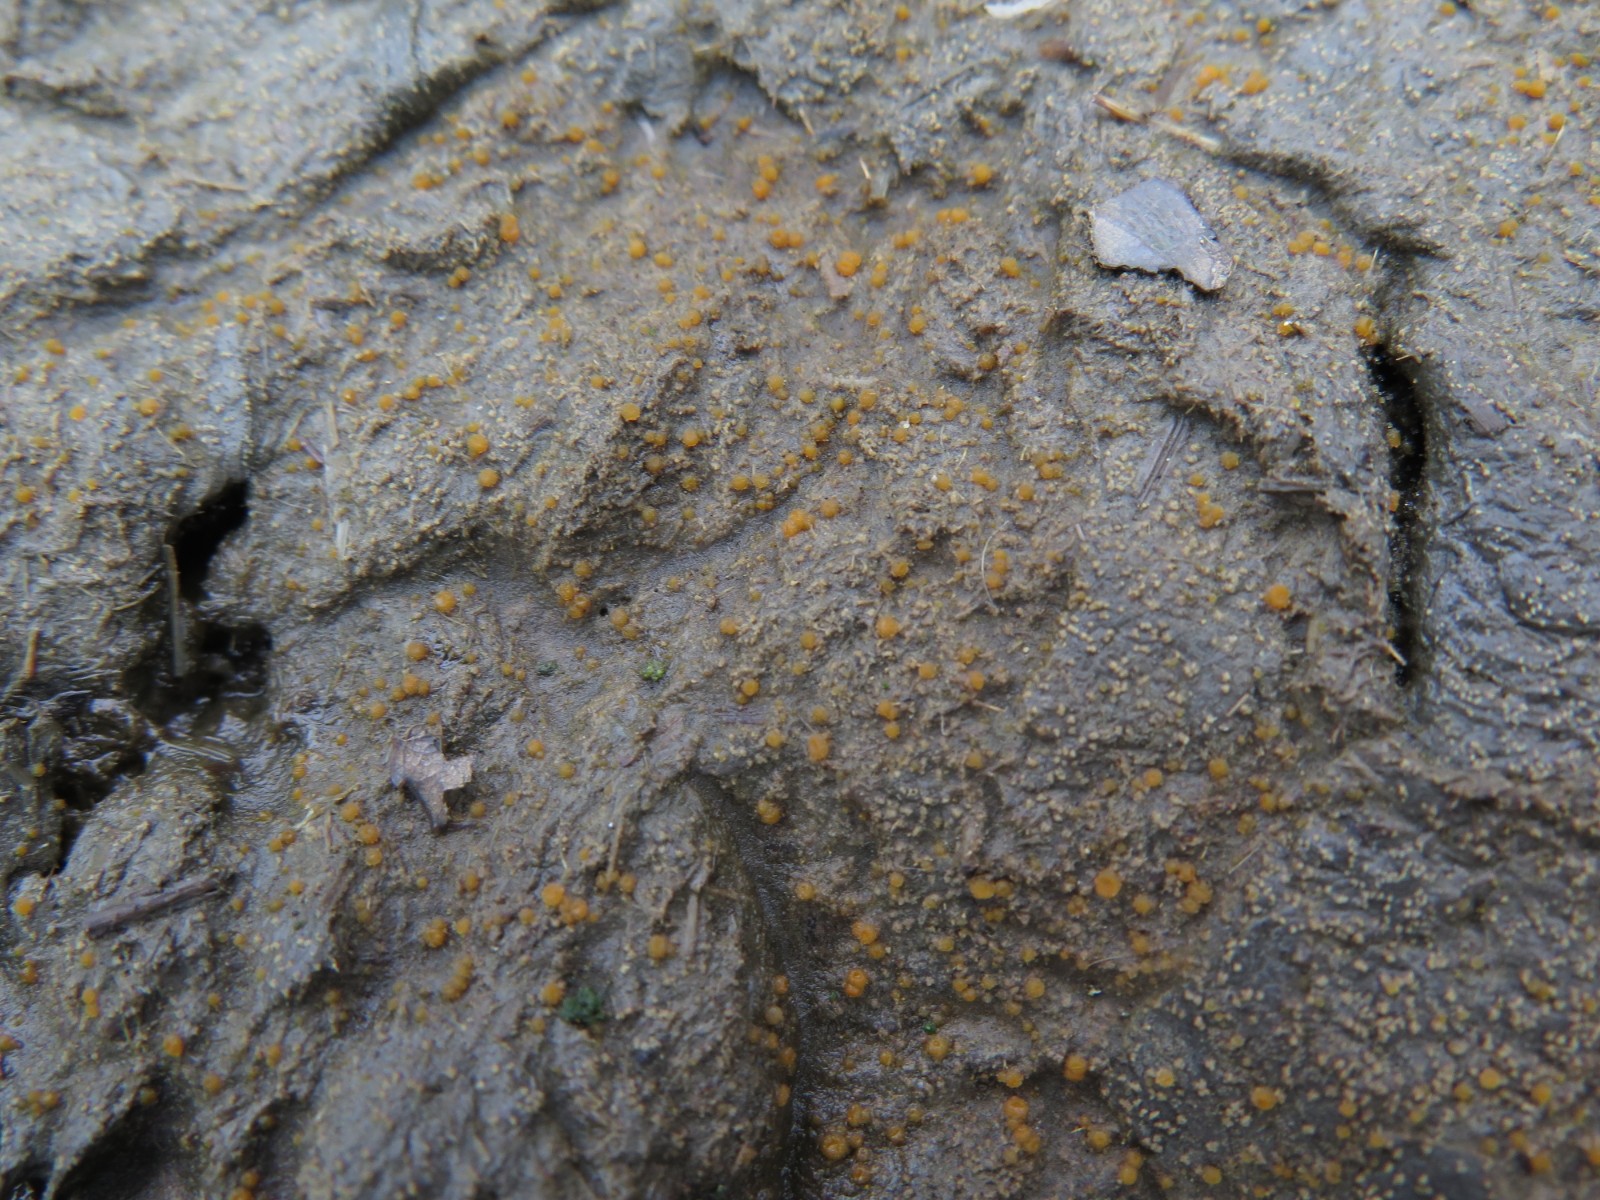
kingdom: Fungi
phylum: Ascomycota
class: Pezizomycetes
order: Pezizales
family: Pyronemataceae
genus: Cheilymenia
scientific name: Cheilymenia granulata
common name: møgbæger
